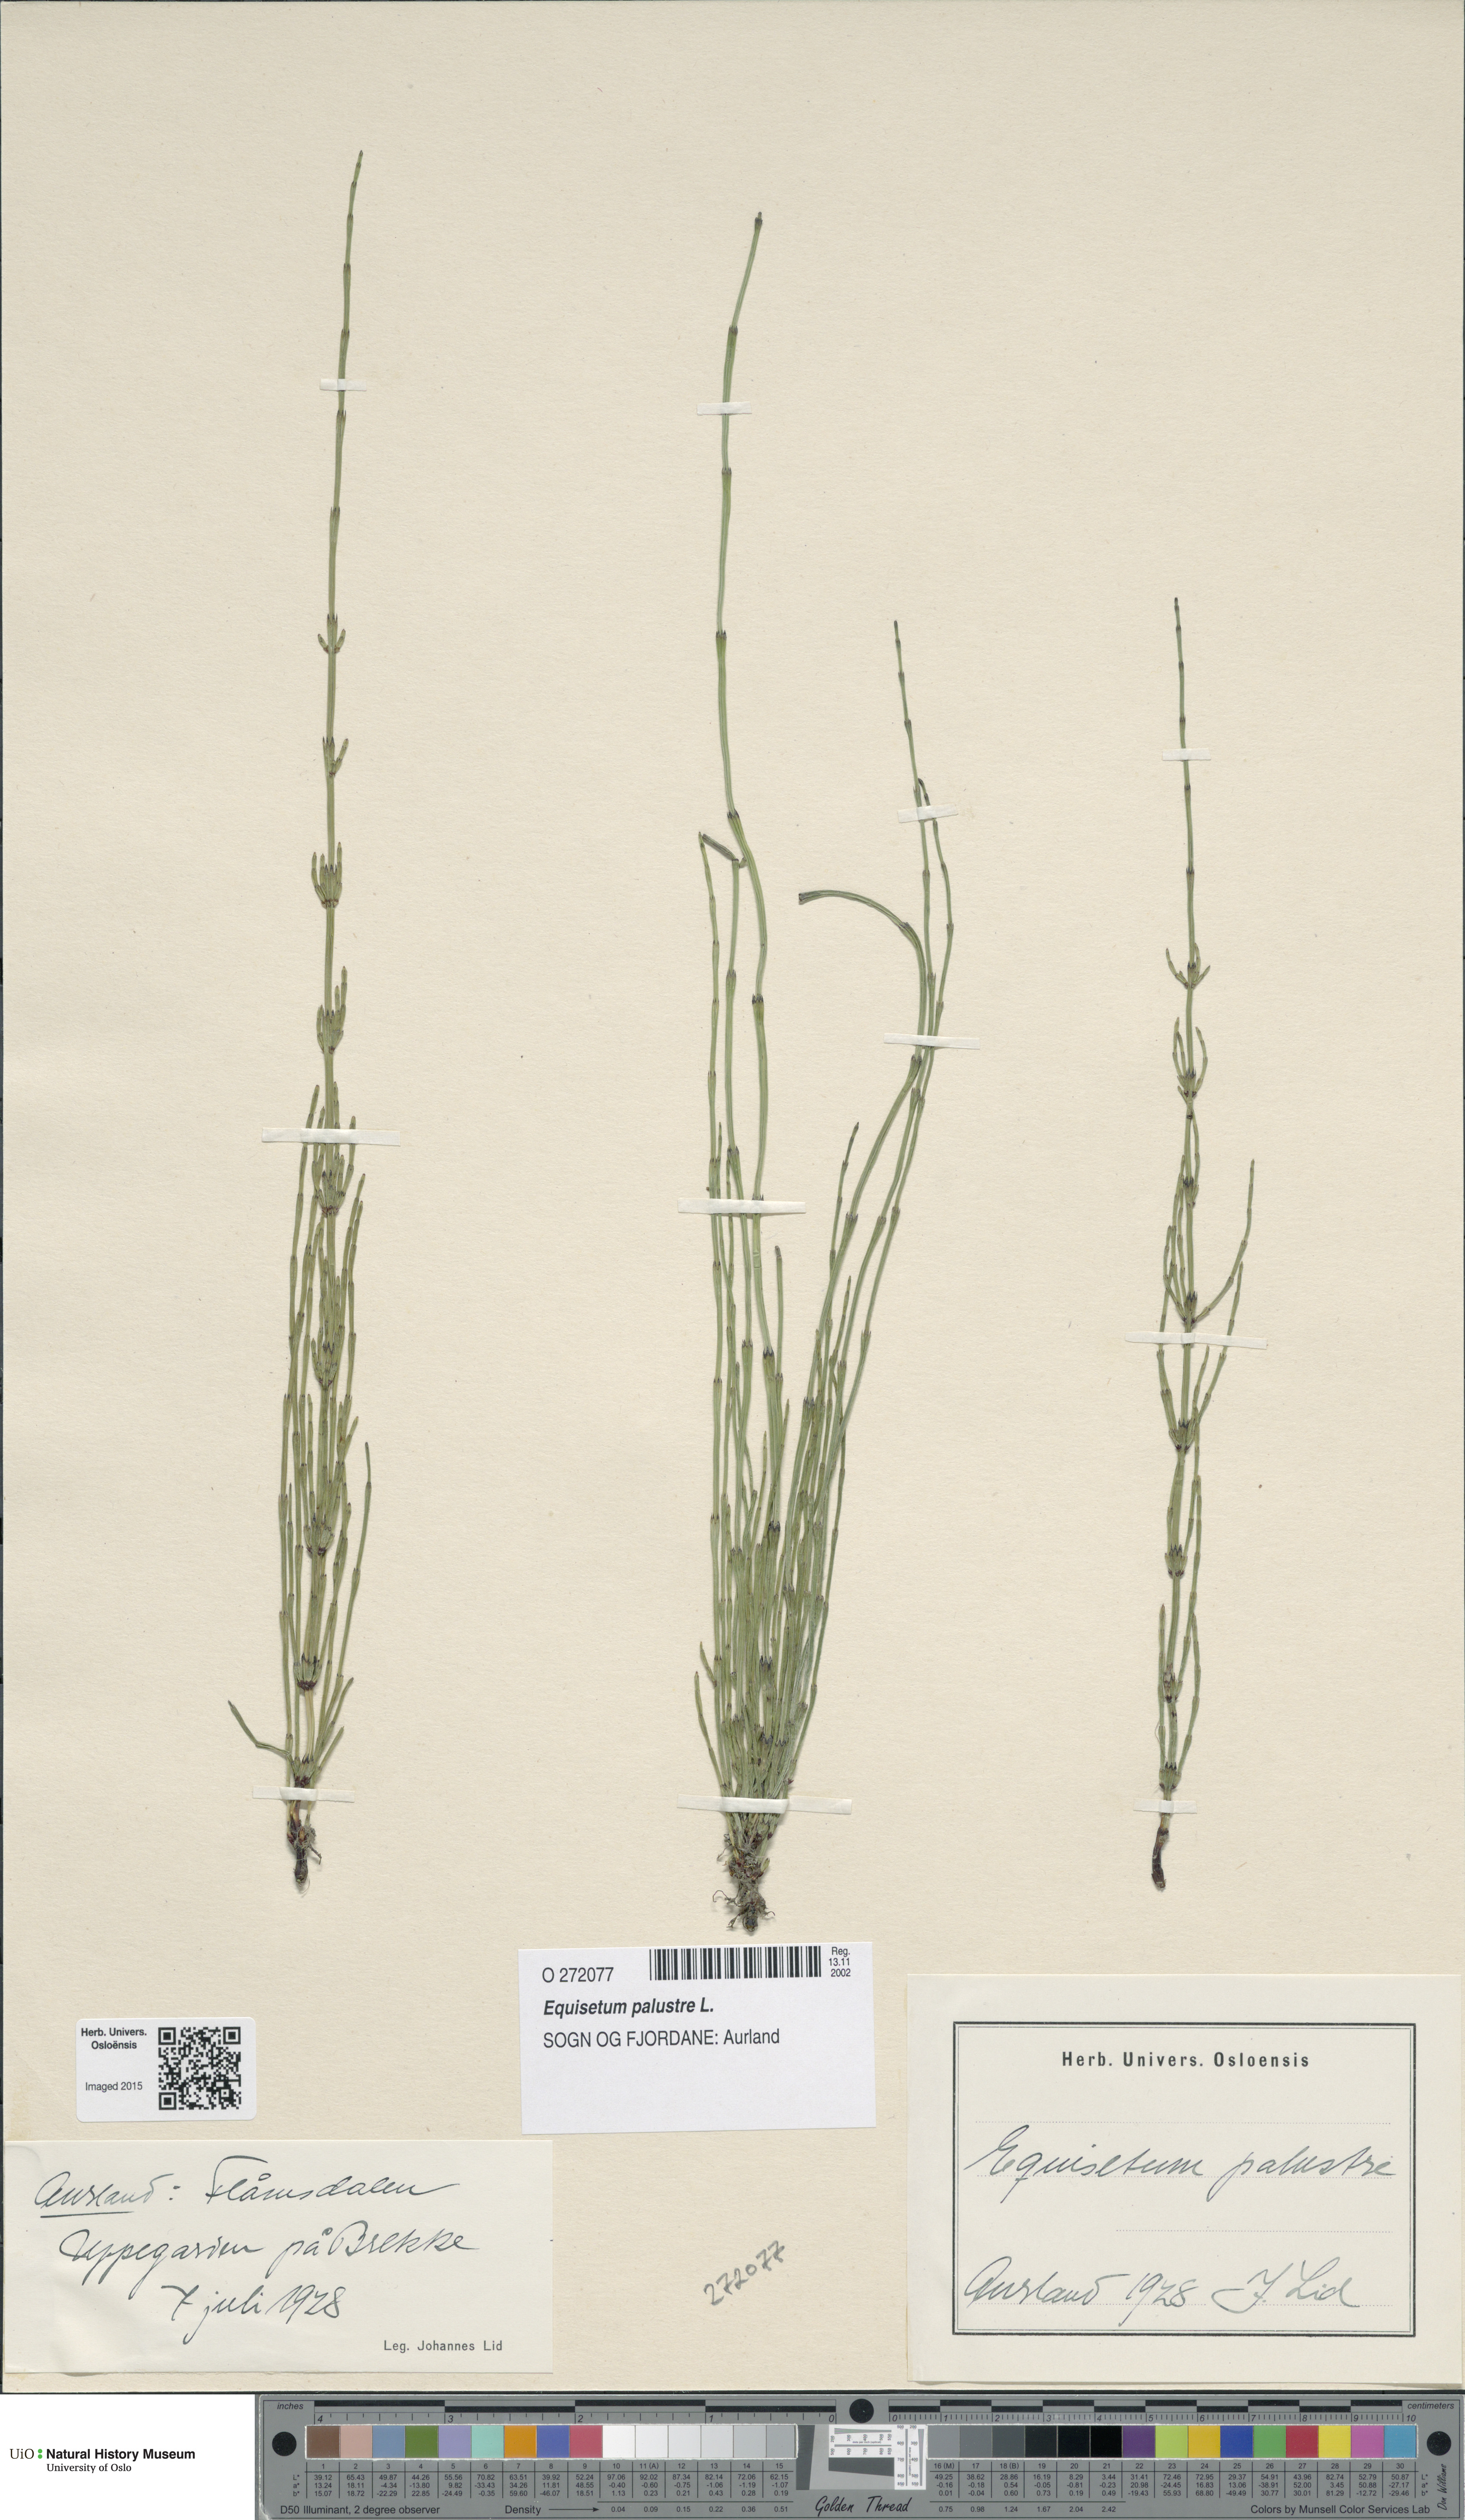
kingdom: Plantae
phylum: Tracheophyta
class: Polypodiopsida
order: Equisetales
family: Equisetaceae
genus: Equisetum
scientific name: Equisetum palustre
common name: Marsh horsetail
